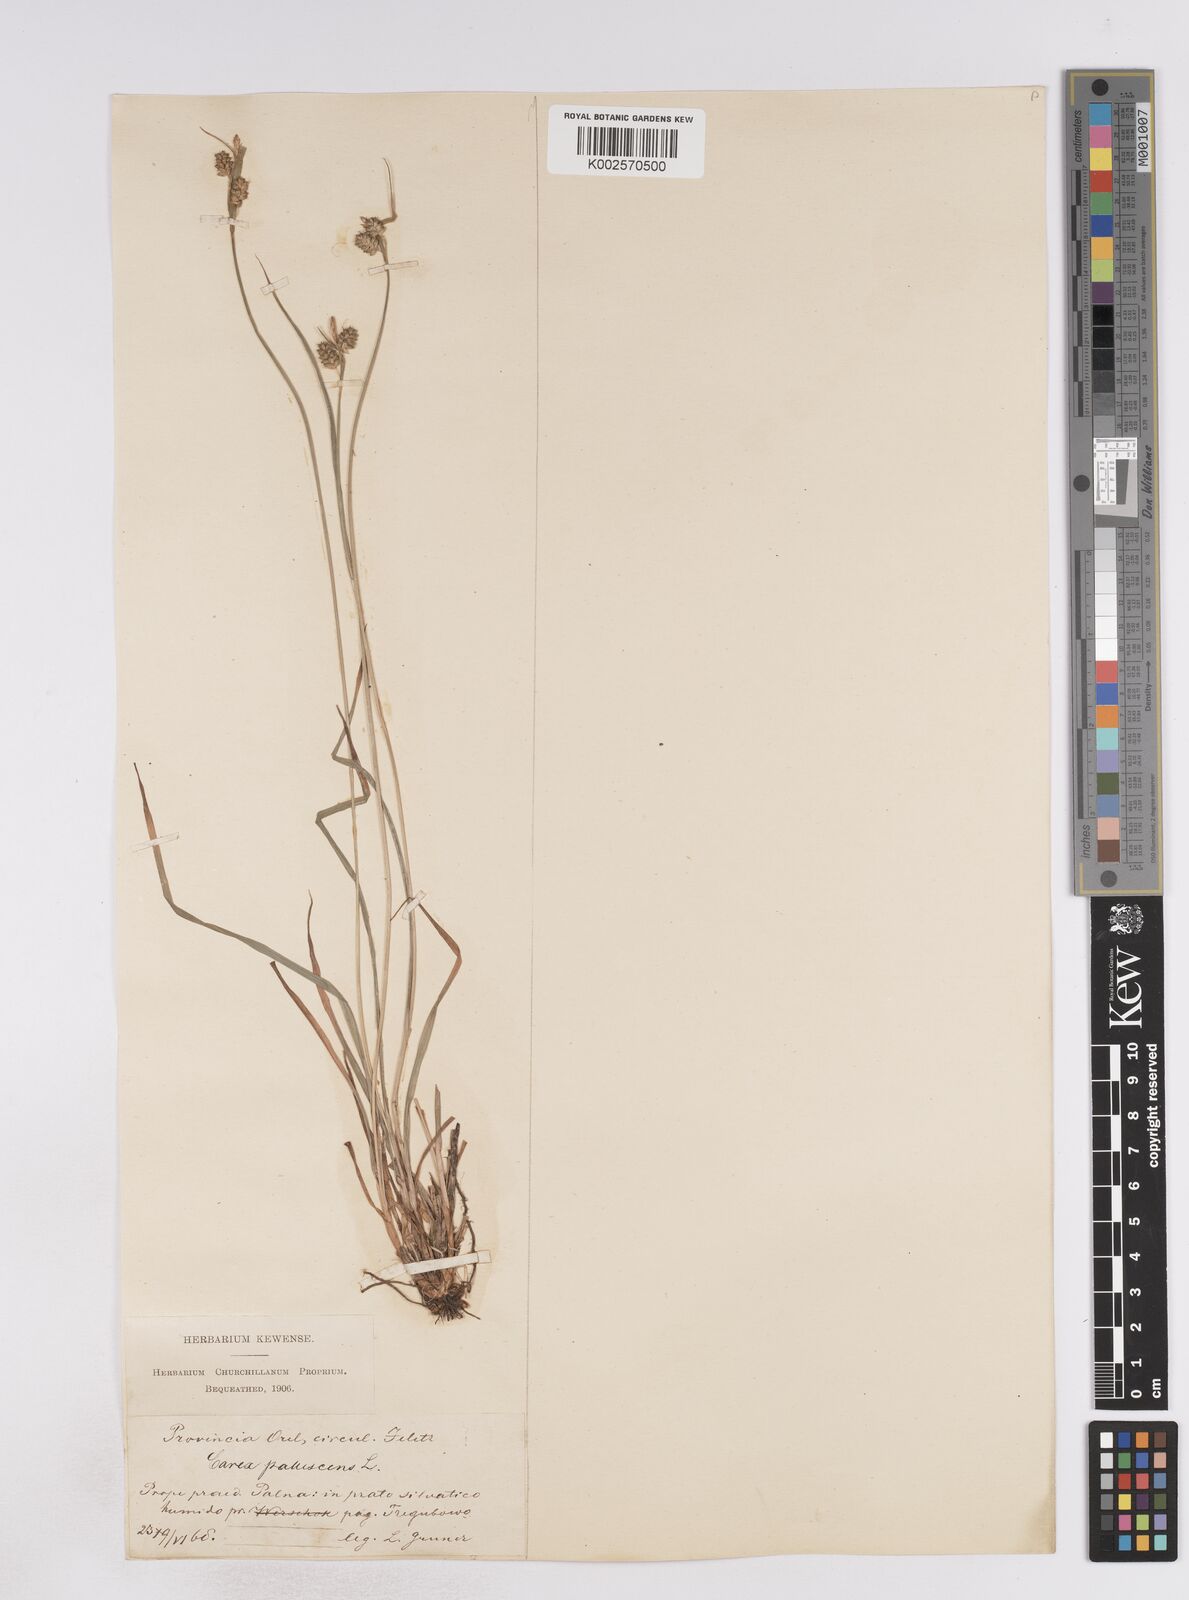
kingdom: Plantae
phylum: Tracheophyta
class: Liliopsida
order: Poales
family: Cyperaceae
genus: Carex
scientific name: Carex pallescens
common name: Pale sedge
